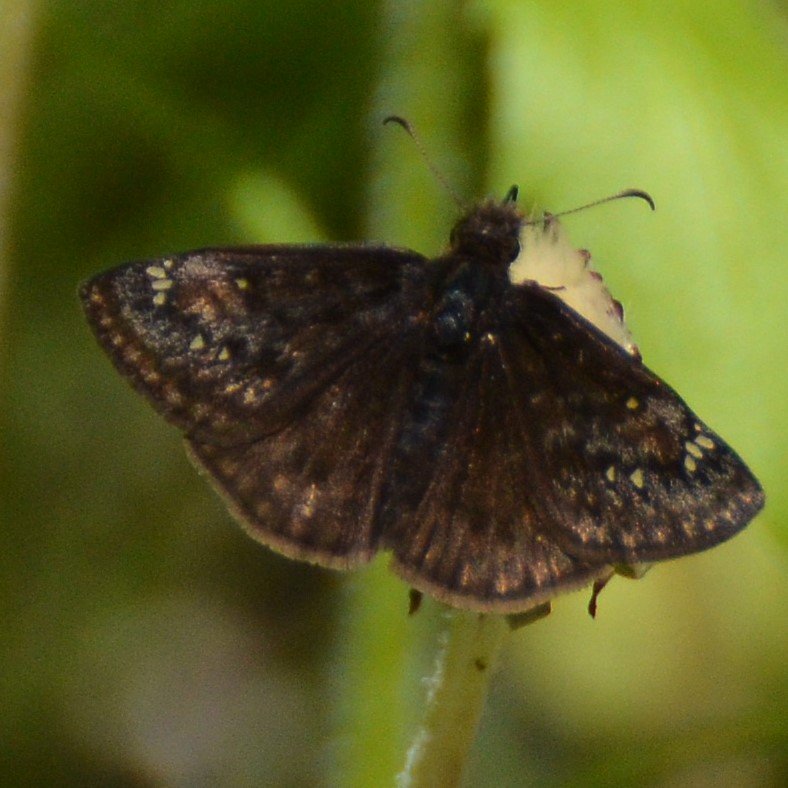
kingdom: Animalia
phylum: Arthropoda
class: Insecta
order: Lepidoptera
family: Hesperiidae
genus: Gesta
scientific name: Gesta
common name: Columbine Duskywing
